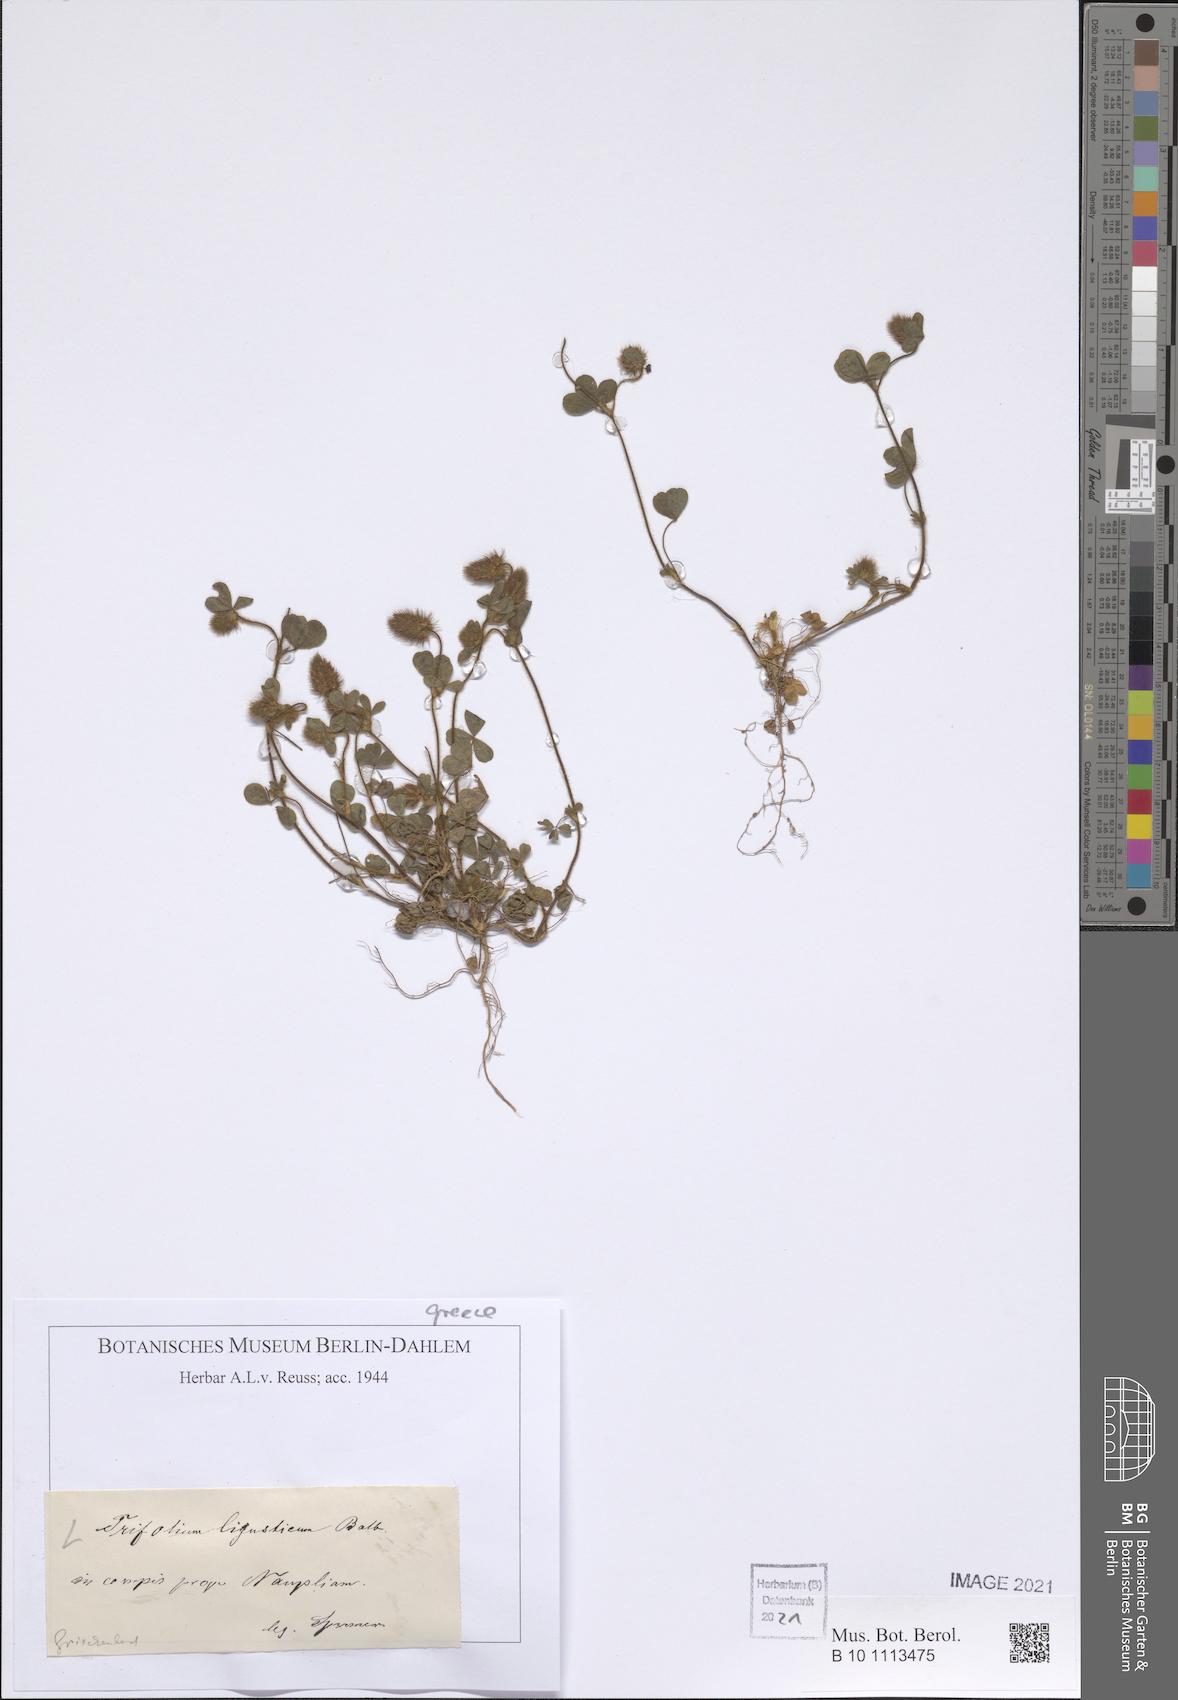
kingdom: Plantae
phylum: Tracheophyta
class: Magnoliopsida
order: Fabales
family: Fabaceae
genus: Trifolium
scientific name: Trifolium ligusticum
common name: Ligurian clover
